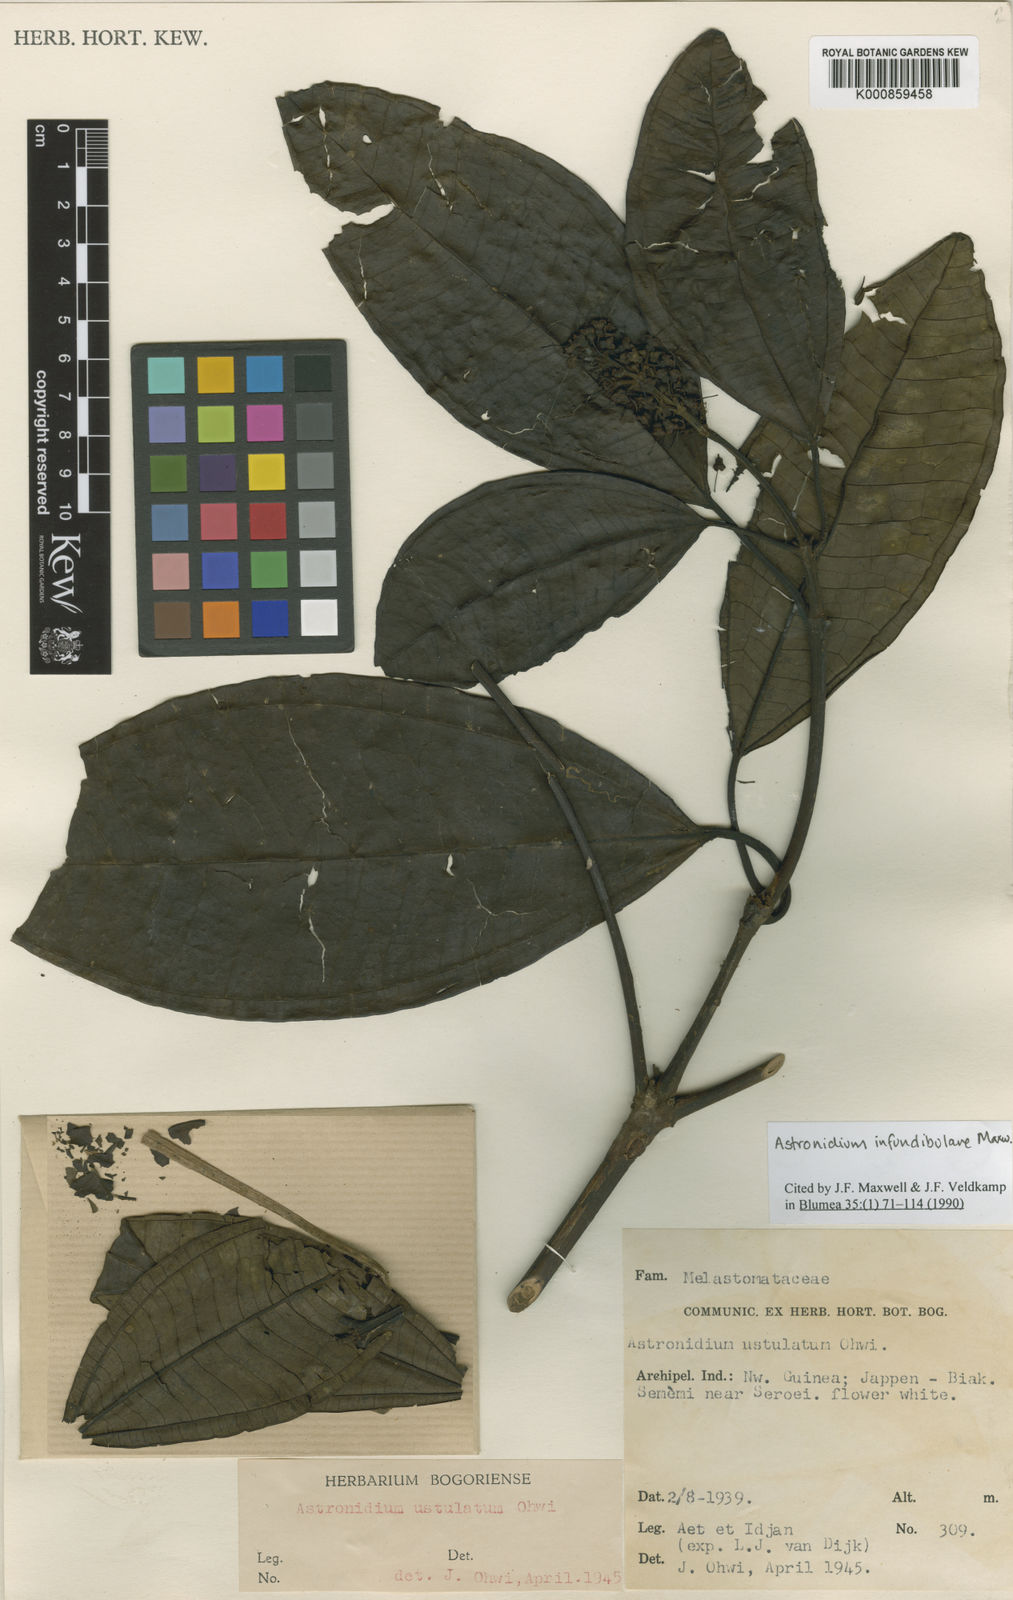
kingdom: Plantae
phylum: Tracheophyta
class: Magnoliopsida
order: Myrtales
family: Melastomataceae
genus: Astronidium
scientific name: Astronidium infundibulare
